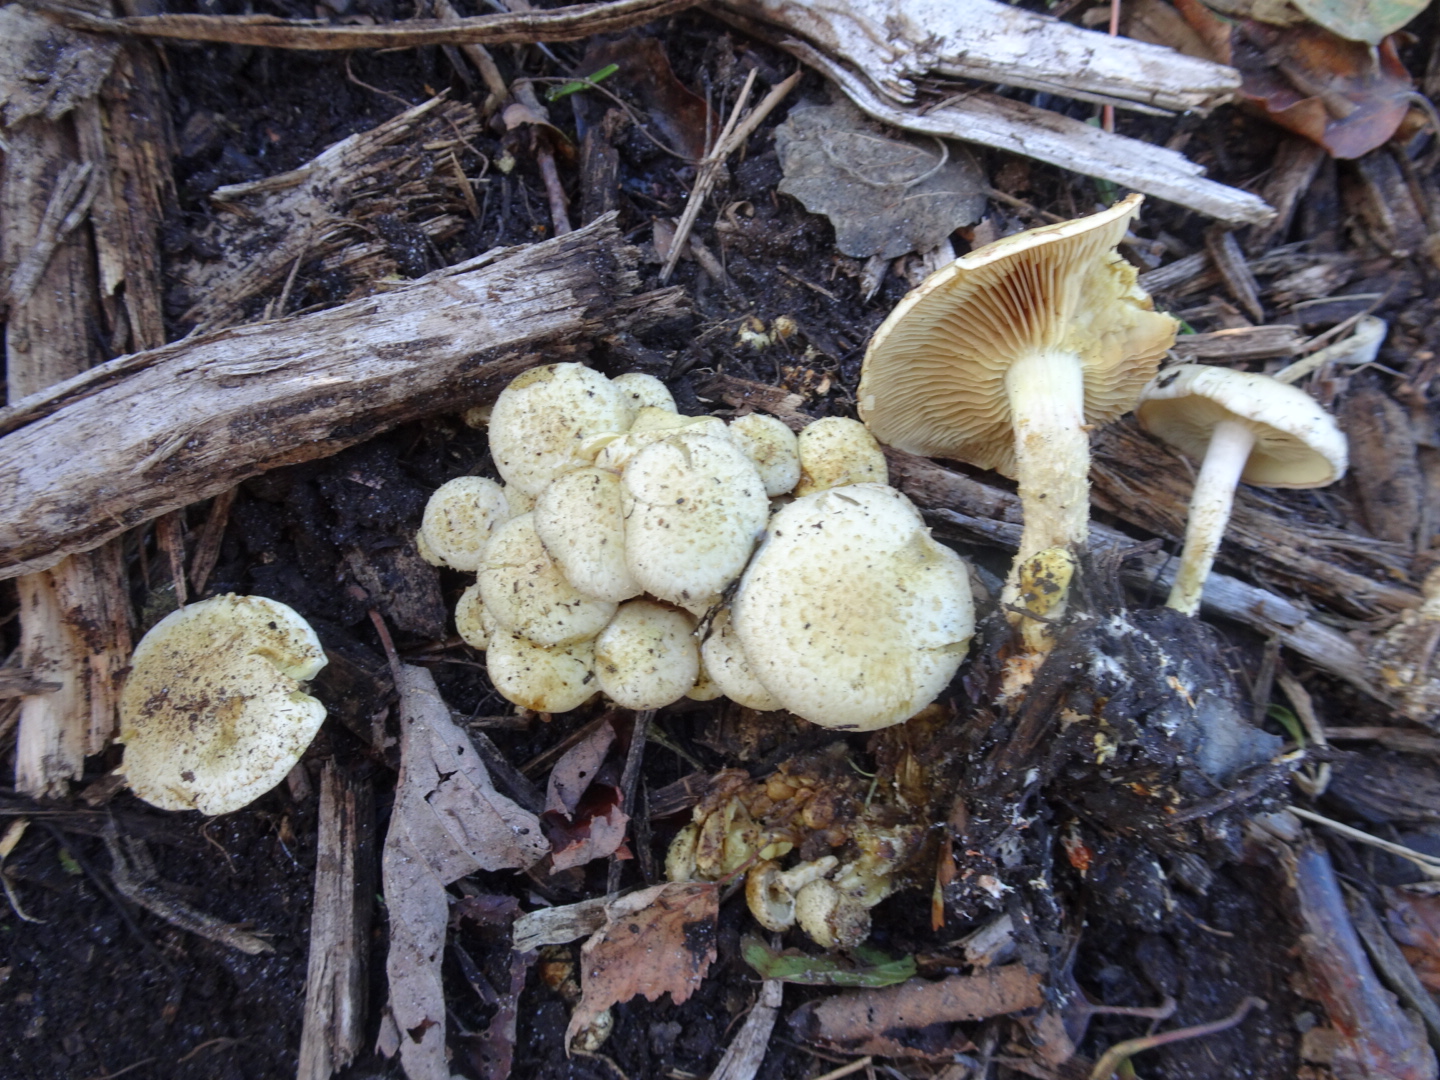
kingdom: Fungi
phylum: Basidiomycota
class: Agaricomycetes
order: Agaricales
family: Strophariaceae
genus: Pholiota
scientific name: Pholiota gummosa
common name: grøngul skælhat
